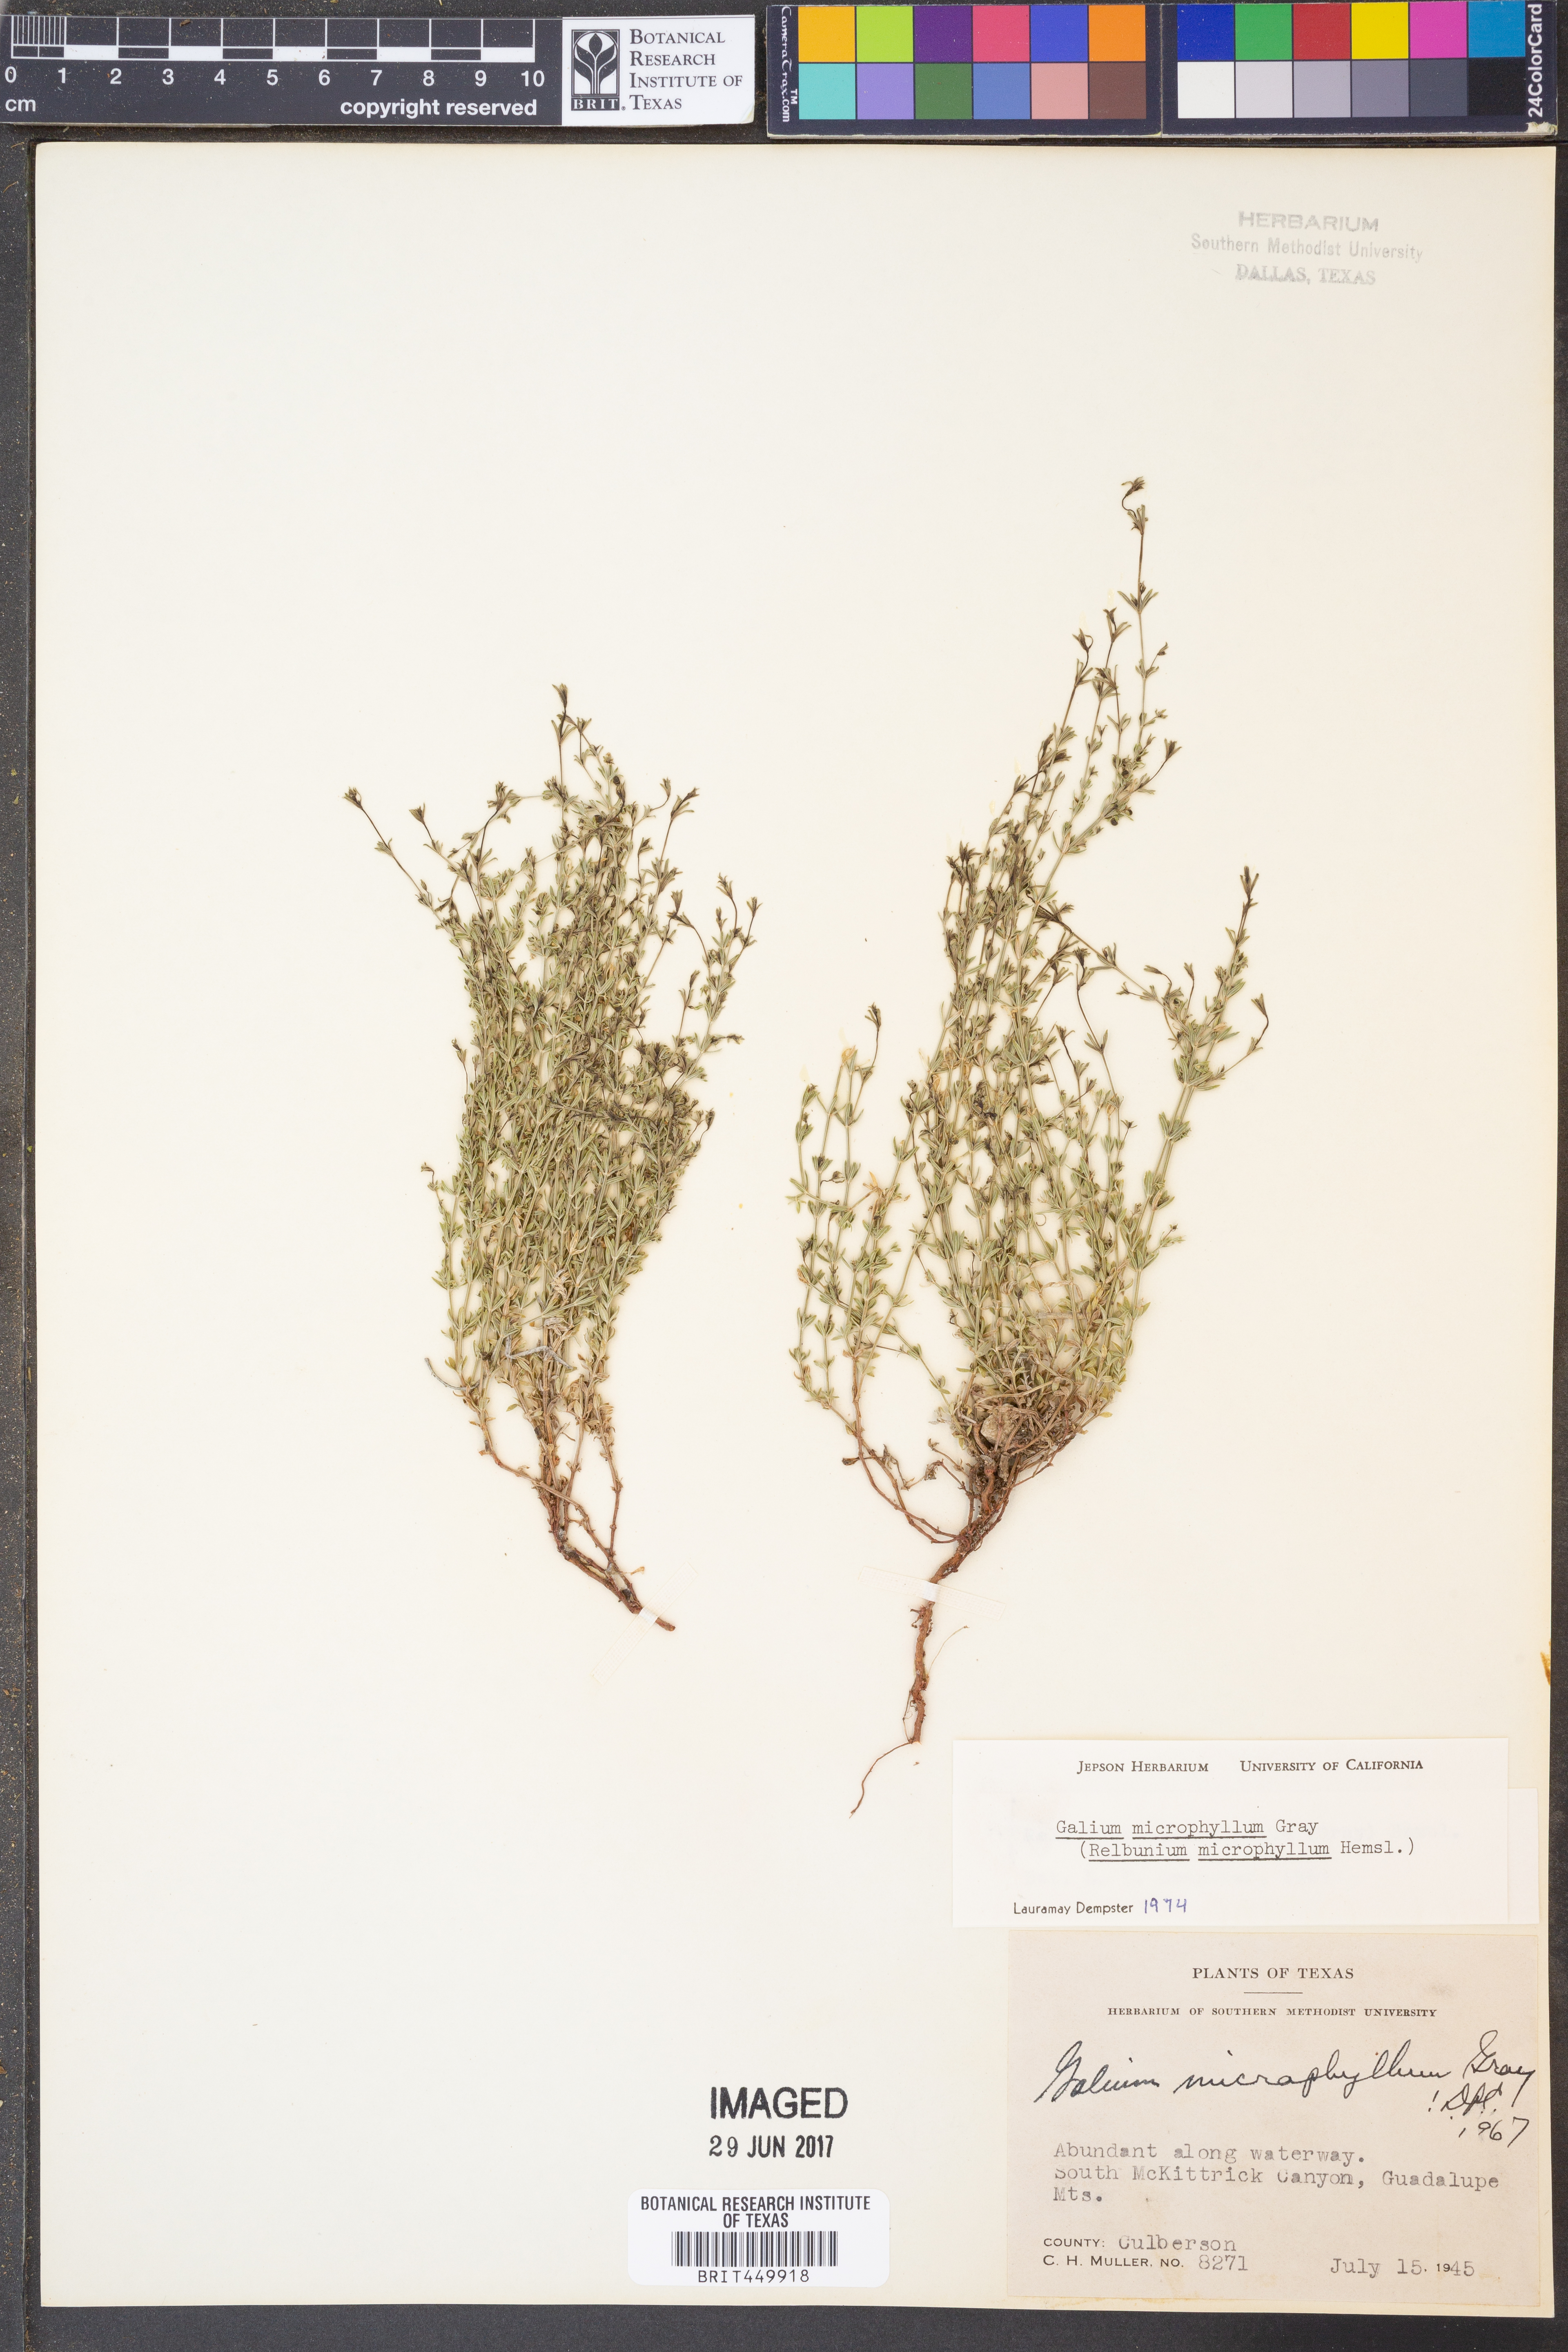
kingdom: Plantae
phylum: Tracheophyta
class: Magnoliopsida
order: Gentianales
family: Rubiaceae
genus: Galium
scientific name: Galium microphyllum
